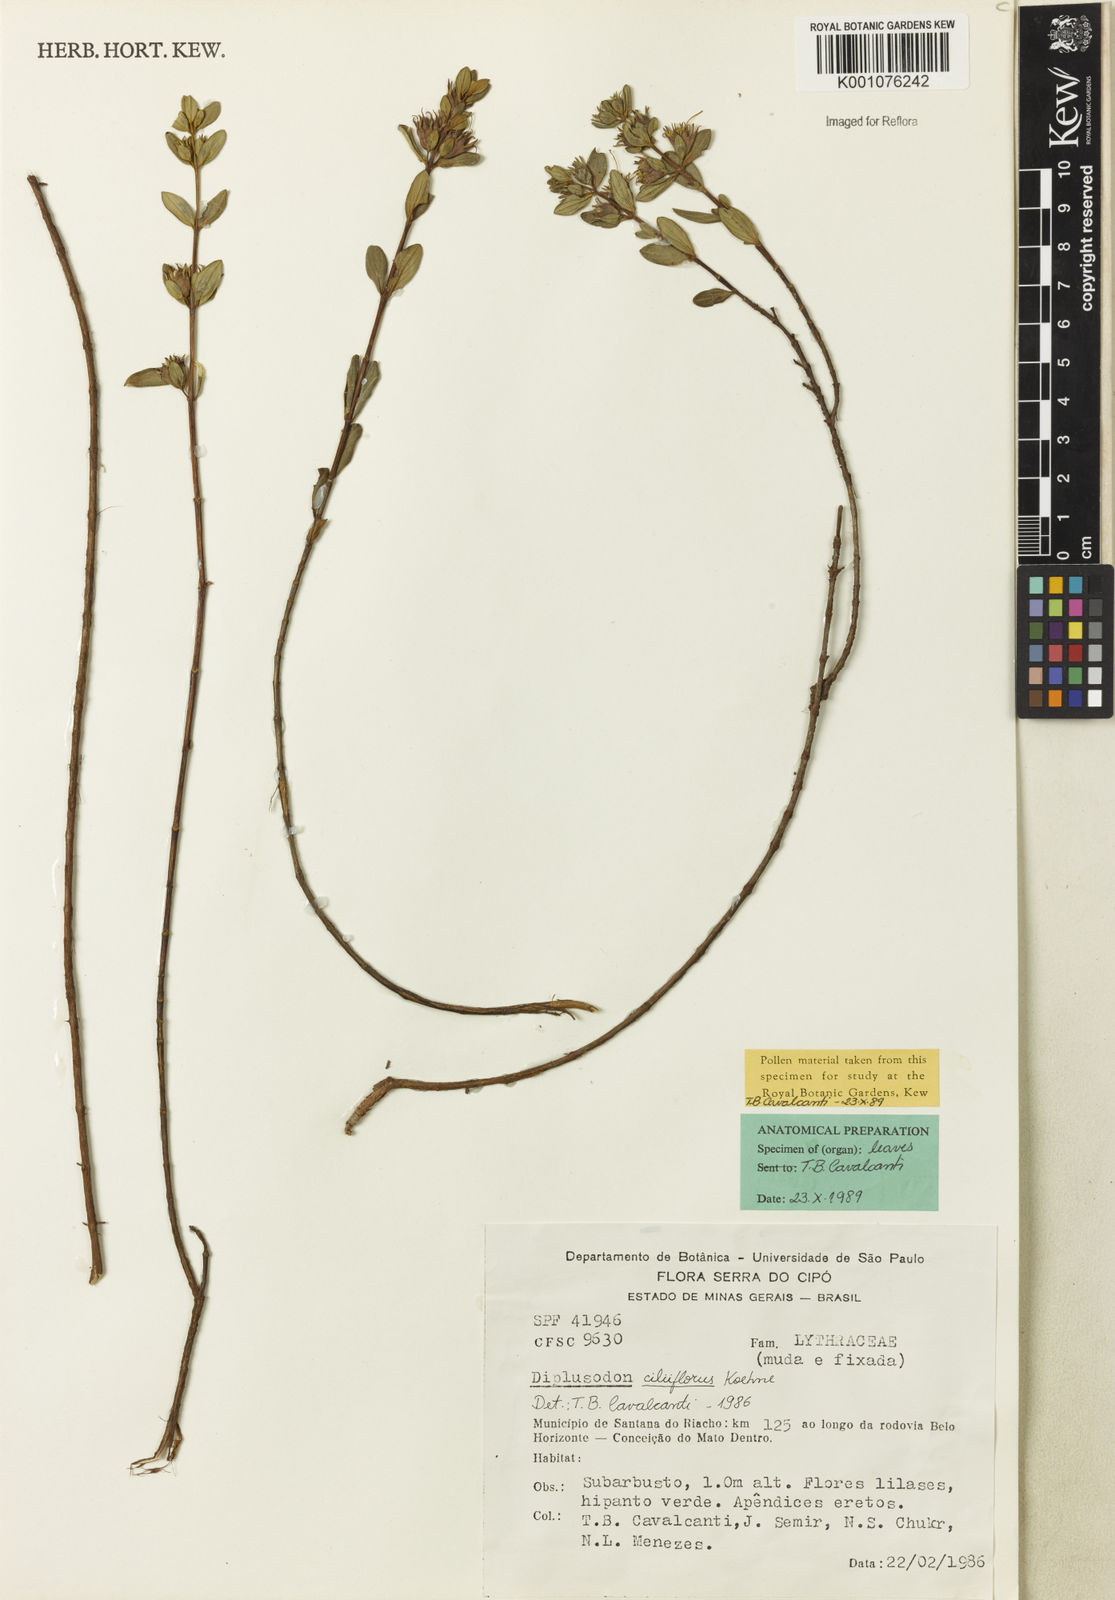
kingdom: Plantae
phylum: Tracheophyta
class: Magnoliopsida
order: Myrtales
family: Lythraceae
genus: Diplusodon
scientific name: Diplusodon ciliiflorus
